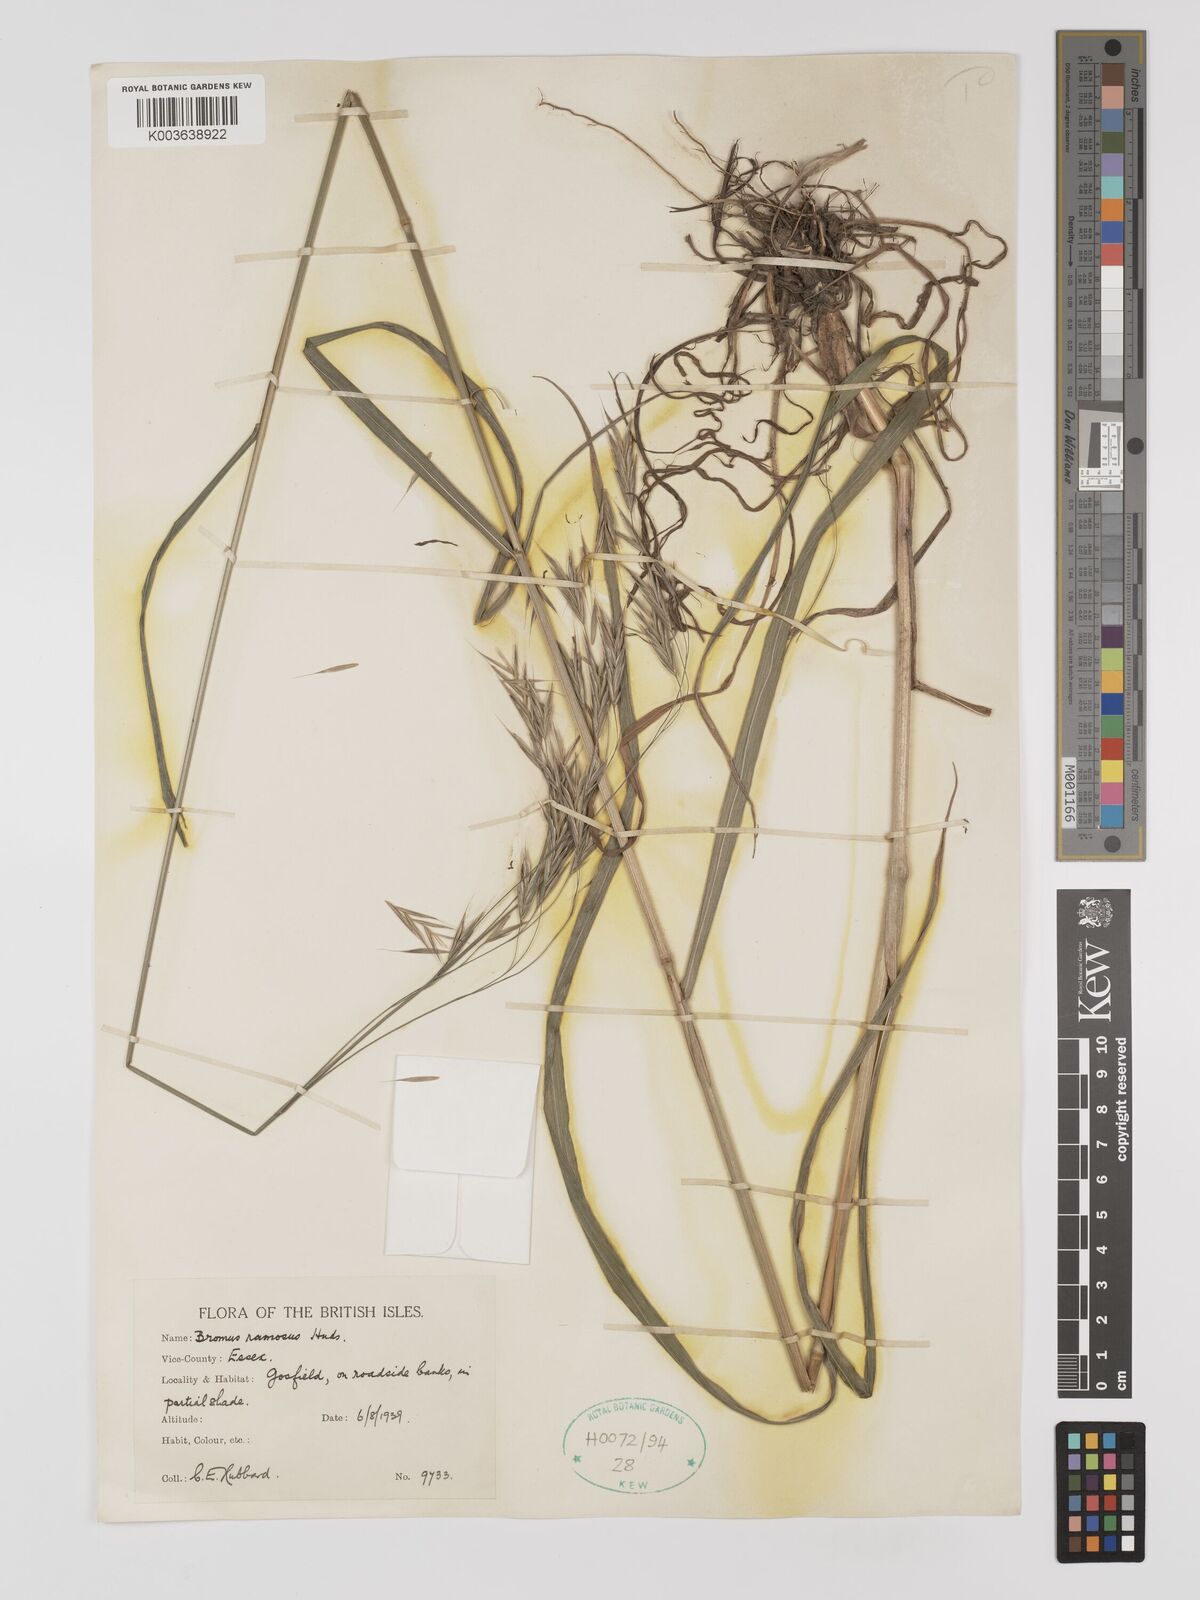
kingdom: Plantae
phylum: Tracheophyta
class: Liliopsida
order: Poales
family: Poaceae
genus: Bromus
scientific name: Bromus ramosus
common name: Hairy brome
